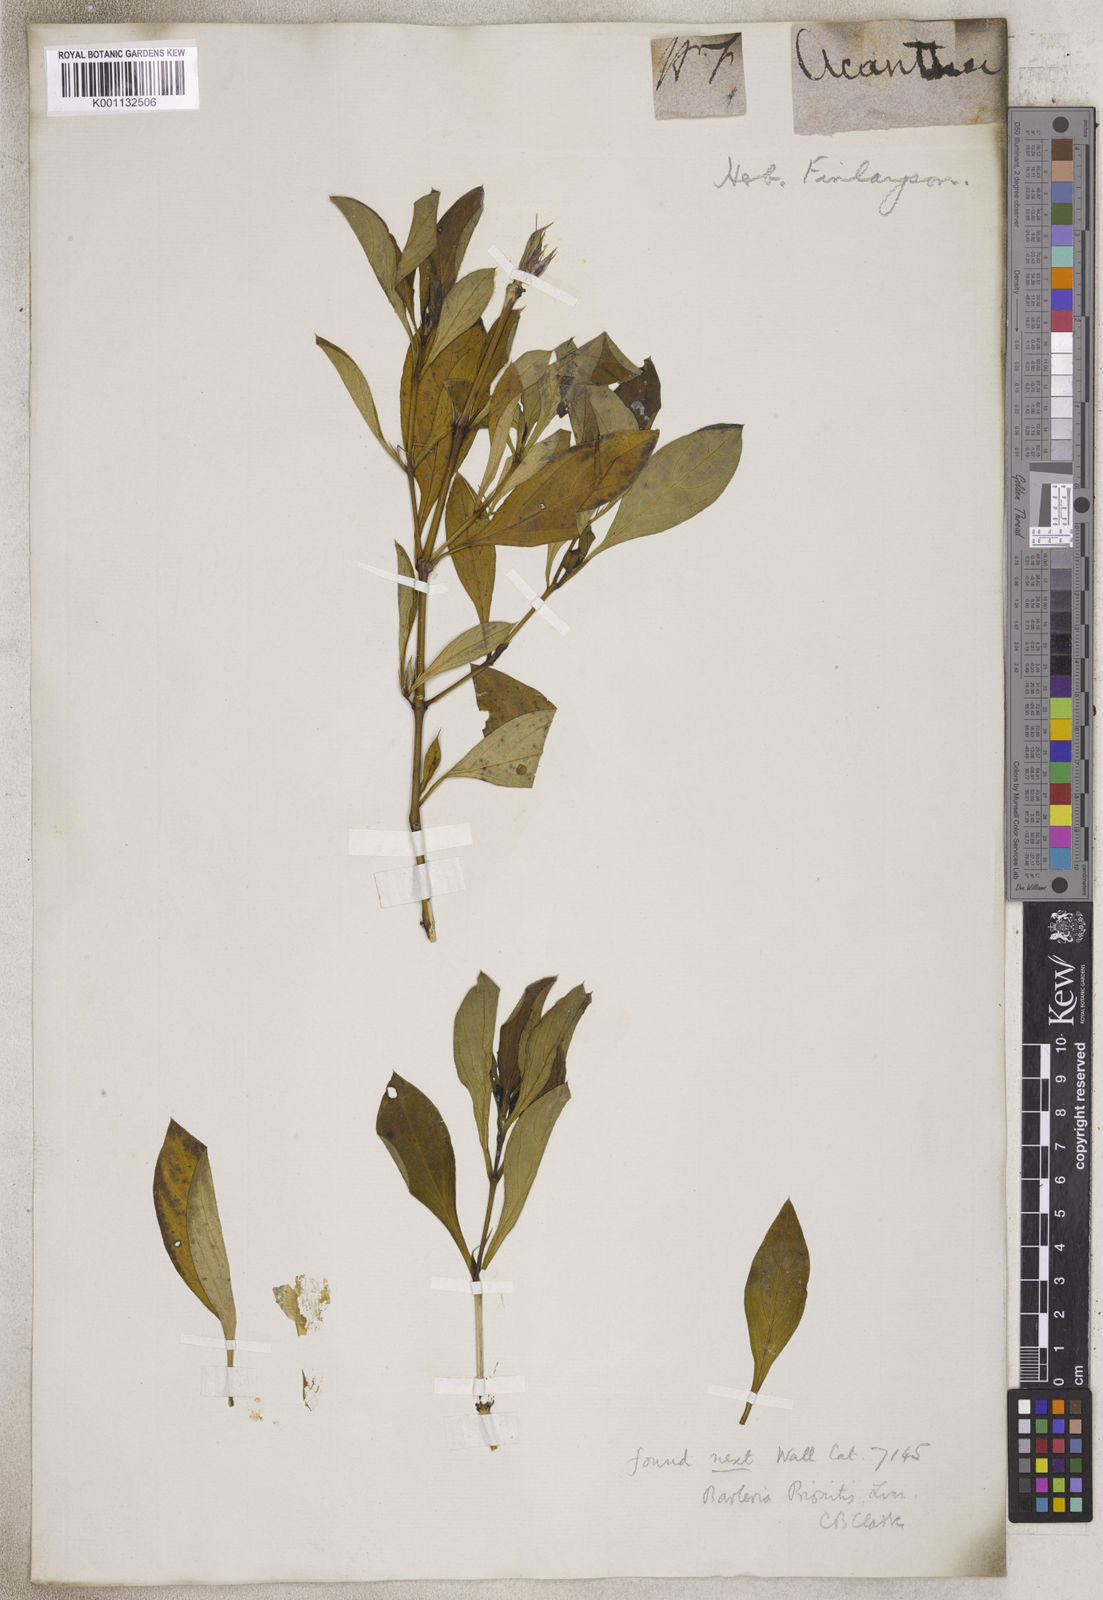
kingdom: Plantae
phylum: Tracheophyta
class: Magnoliopsida
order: Lamiales
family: Acanthaceae
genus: Barleria
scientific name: Barleria
